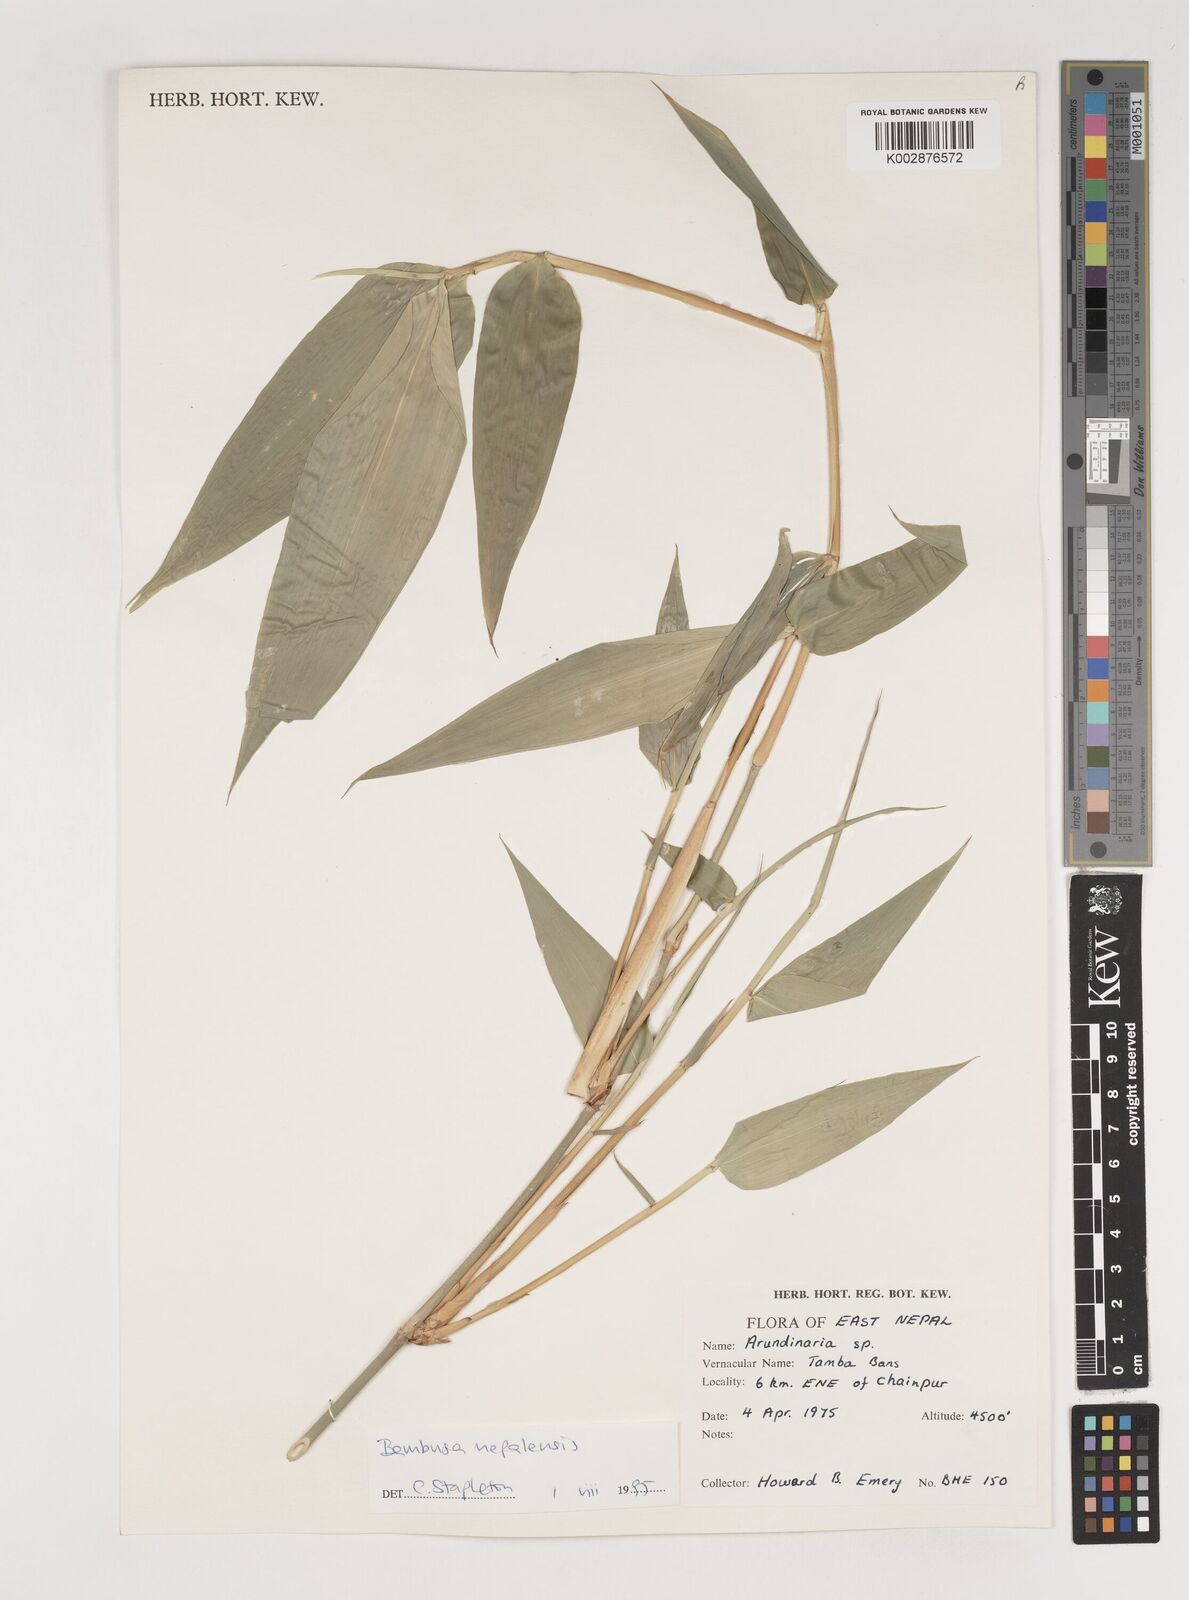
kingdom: Plantae
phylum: Tracheophyta
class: Liliopsida
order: Poales
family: Poaceae
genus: Bambusa
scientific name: Bambusa nepalensis
